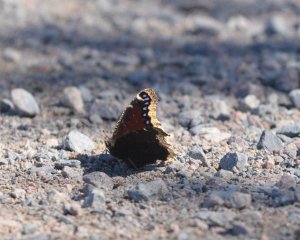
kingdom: Animalia
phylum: Arthropoda
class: Insecta
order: Lepidoptera
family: Nymphalidae
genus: Nymphalis
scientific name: Nymphalis antiopa
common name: Mourning Cloak
